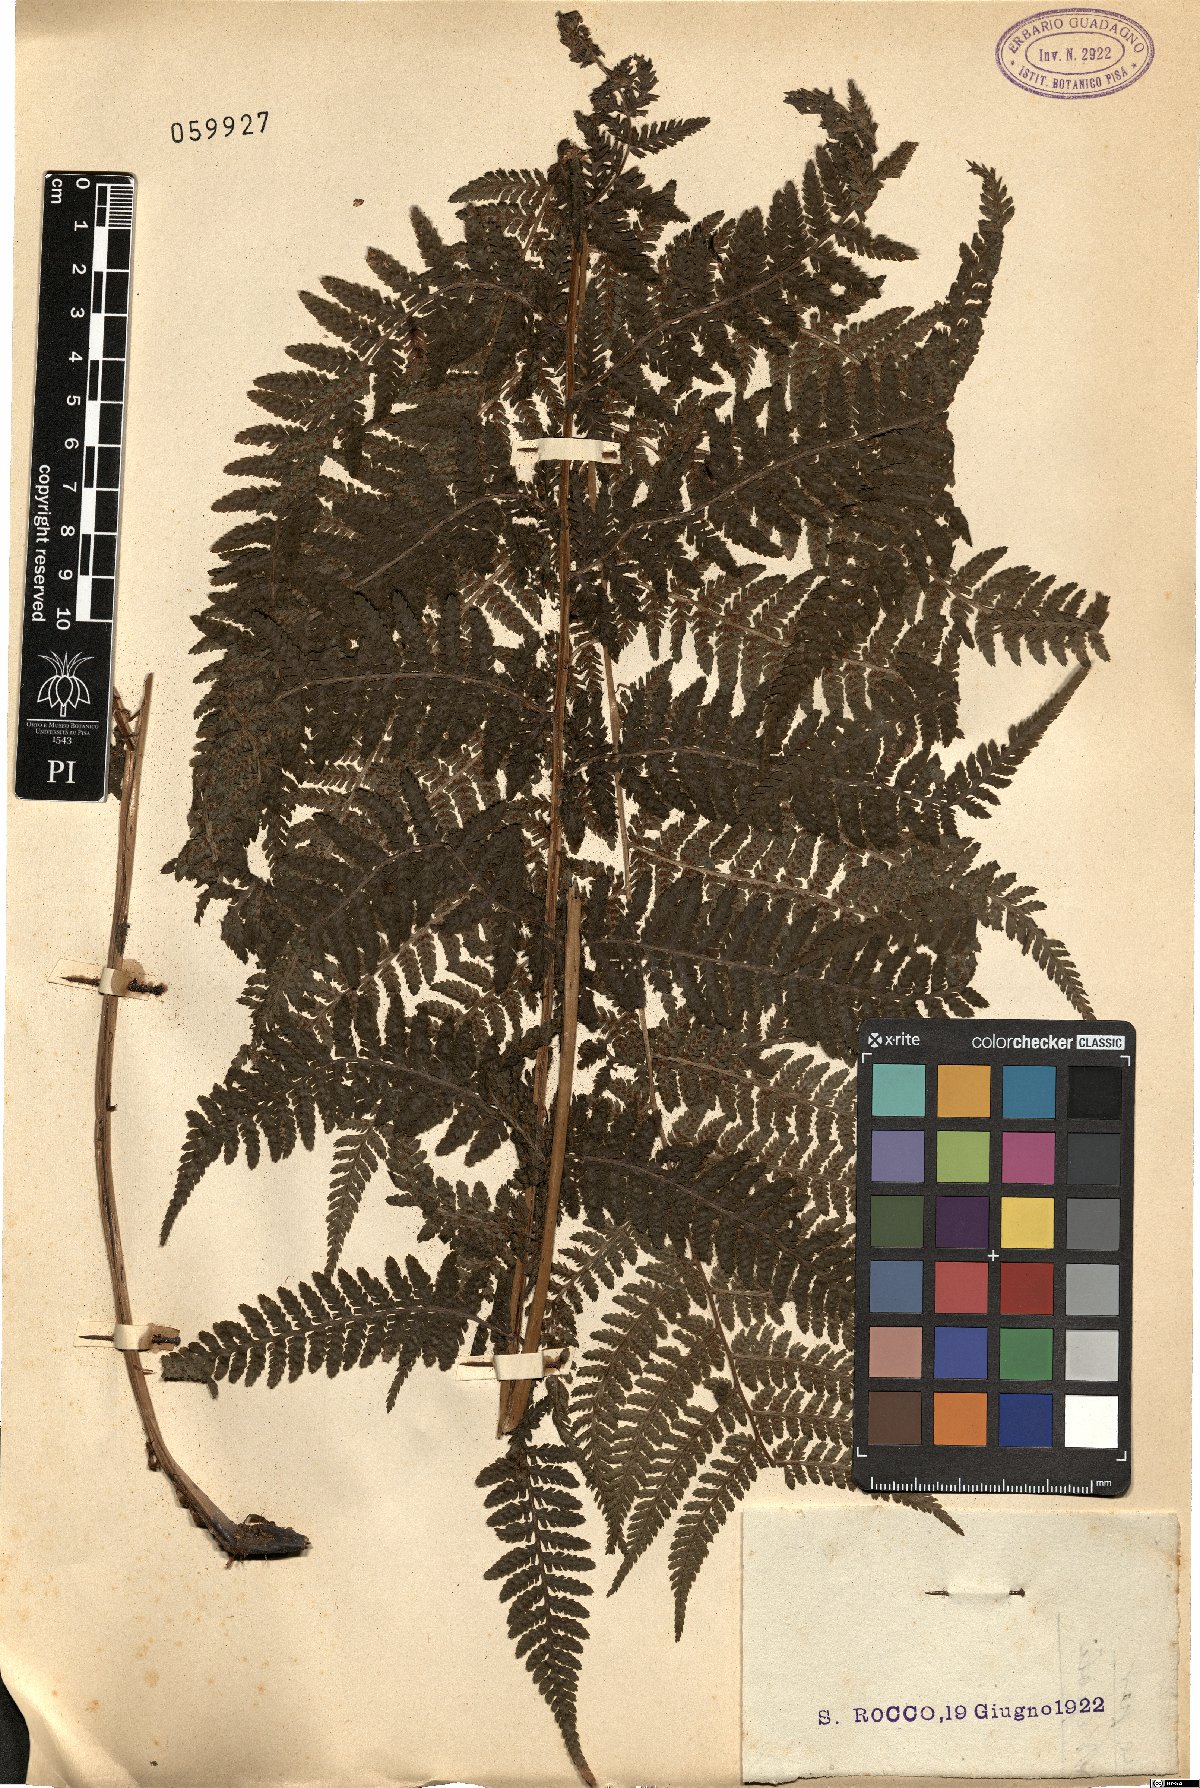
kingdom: Plantae
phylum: Tracheophyta
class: Polypodiopsida
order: Polypodiales
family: Dryopteridaceae
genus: Dryopteris
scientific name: Dryopteris
